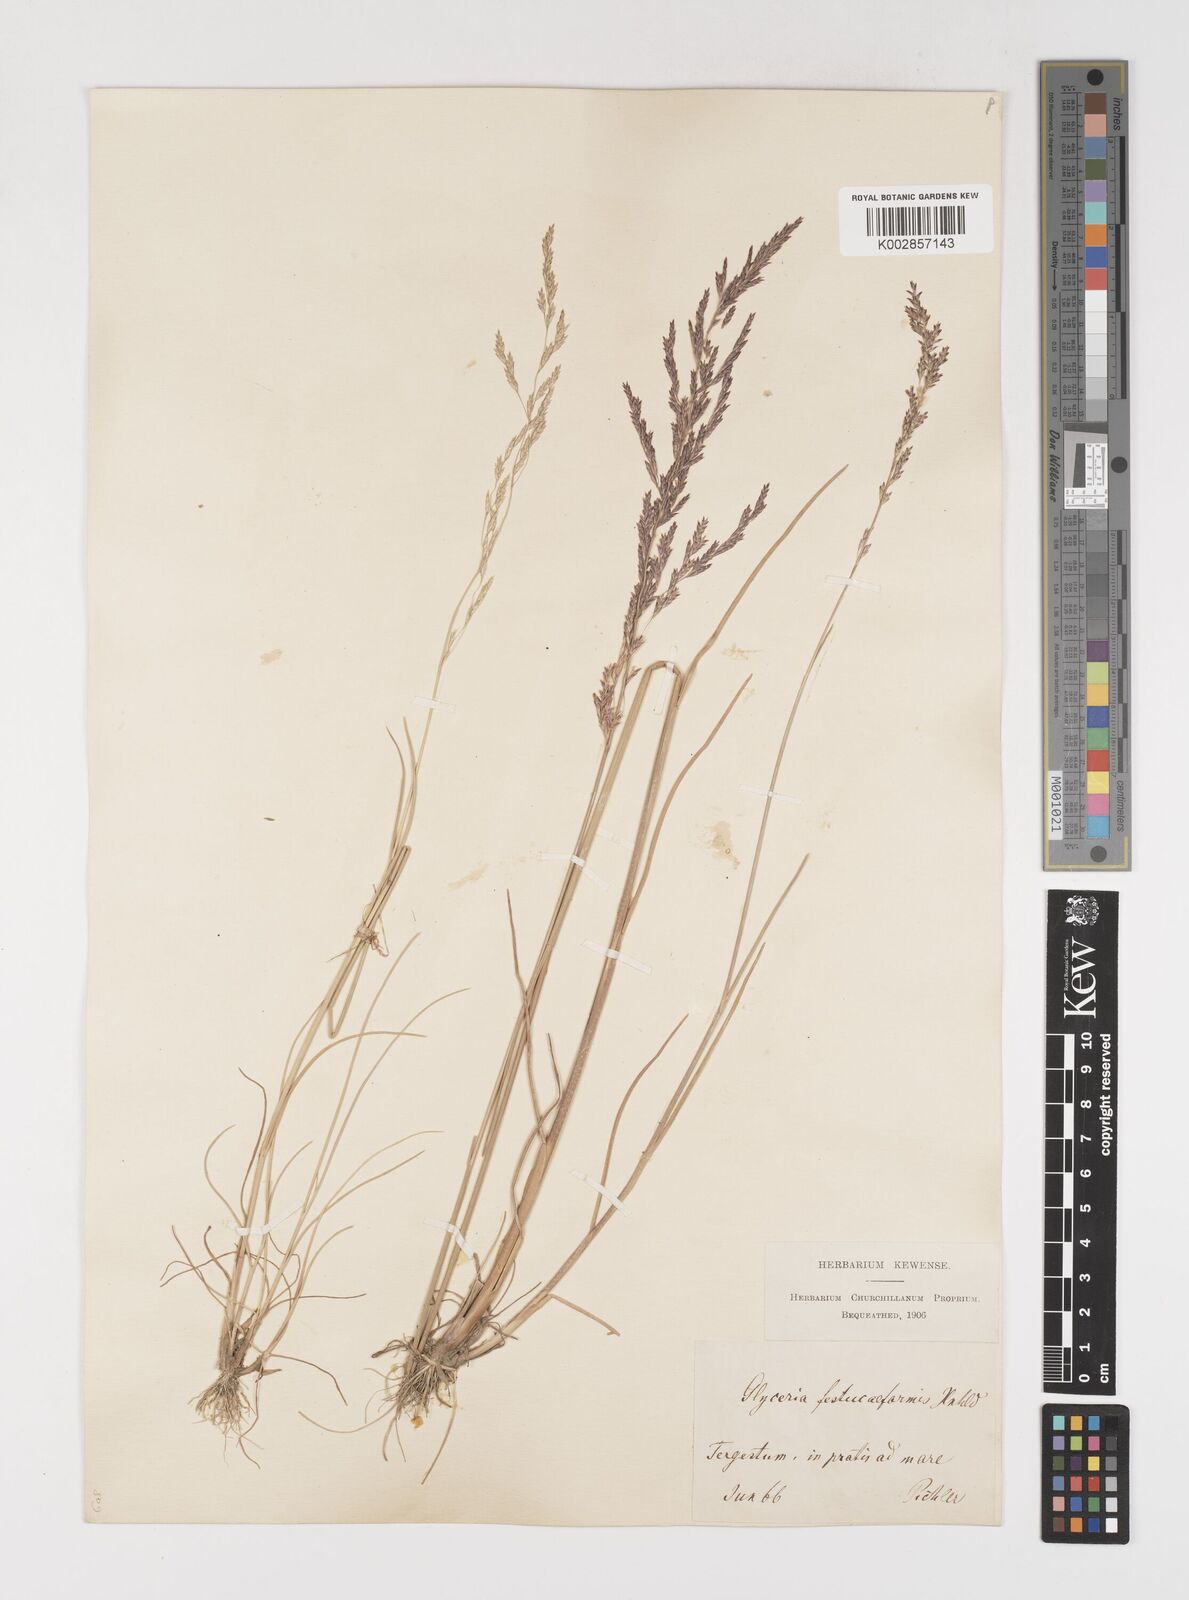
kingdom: Plantae
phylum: Tracheophyta
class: Liliopsida
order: Poales
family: Poaceae
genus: Puccinellia
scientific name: Puccinellia festuciformis
